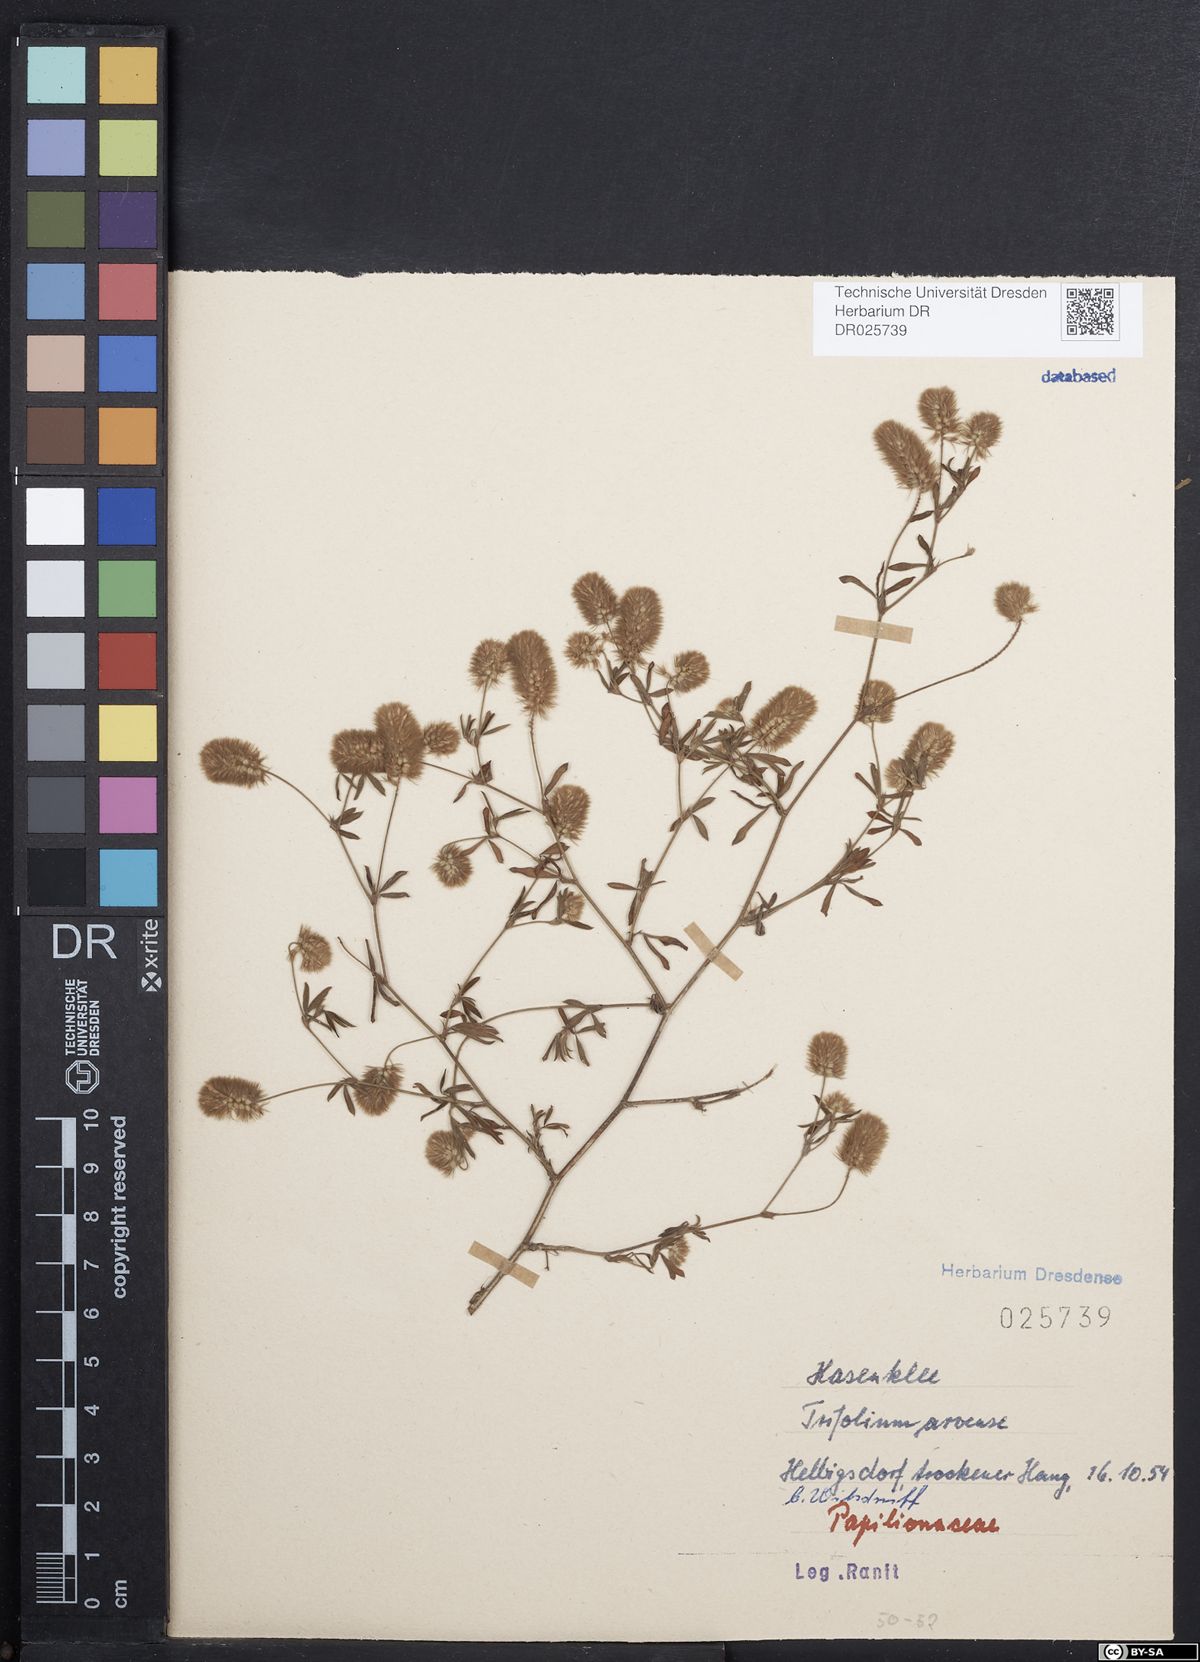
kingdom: Plantae
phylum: Tracheophyta
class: Magnoliopsida
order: Fabales
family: Fabaceae
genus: Trifolium
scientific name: Trifolium arvense
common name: Hare's-foot clover
